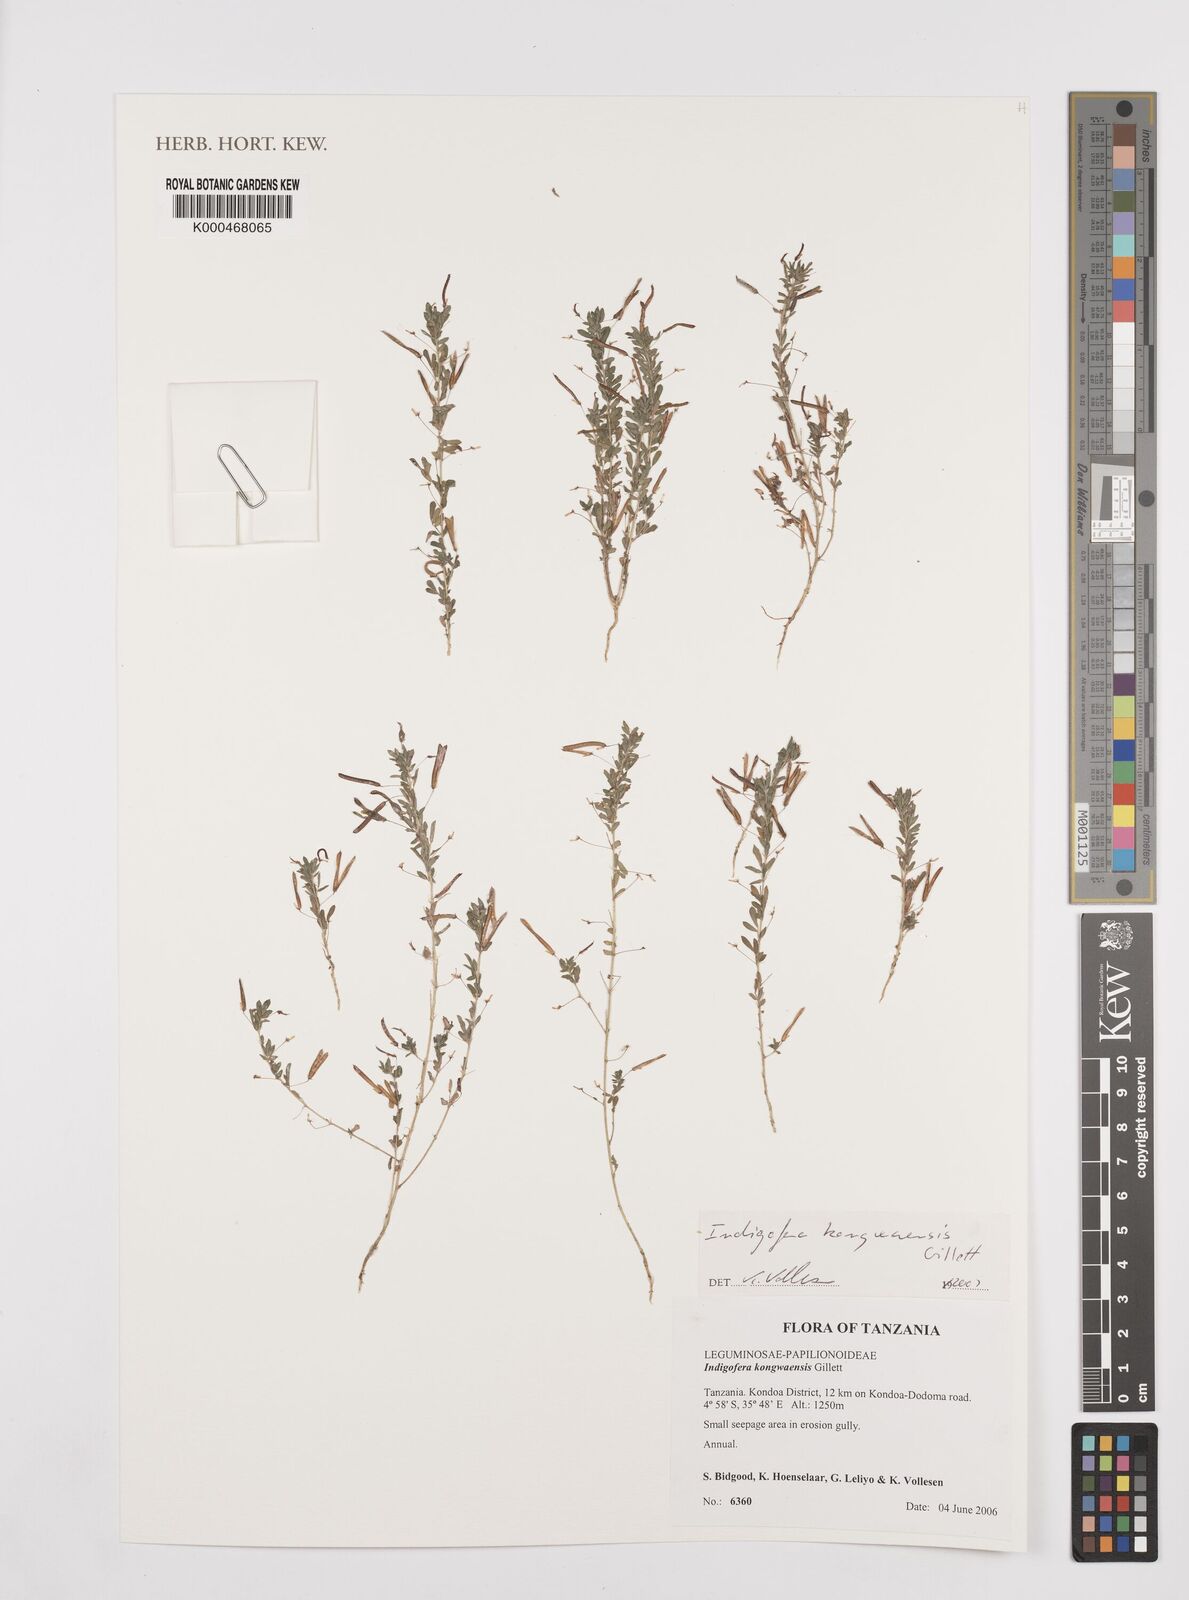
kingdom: Plantae
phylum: Tracheophyta
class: Magnoliopsida
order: Fabales
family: Fabaceae
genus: Indigofera
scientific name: Indigofera kongwaensis
